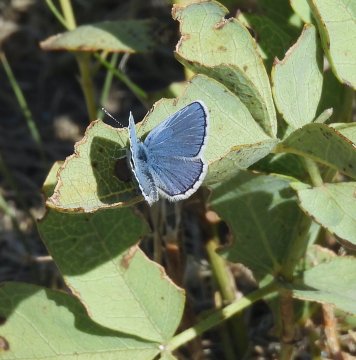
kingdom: Animalia
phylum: Arthropoda
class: Insecta
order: Lepidoptera
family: Lycaenidae
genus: Lycaeides
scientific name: Lycaeides melissa
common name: Melissa Blue
